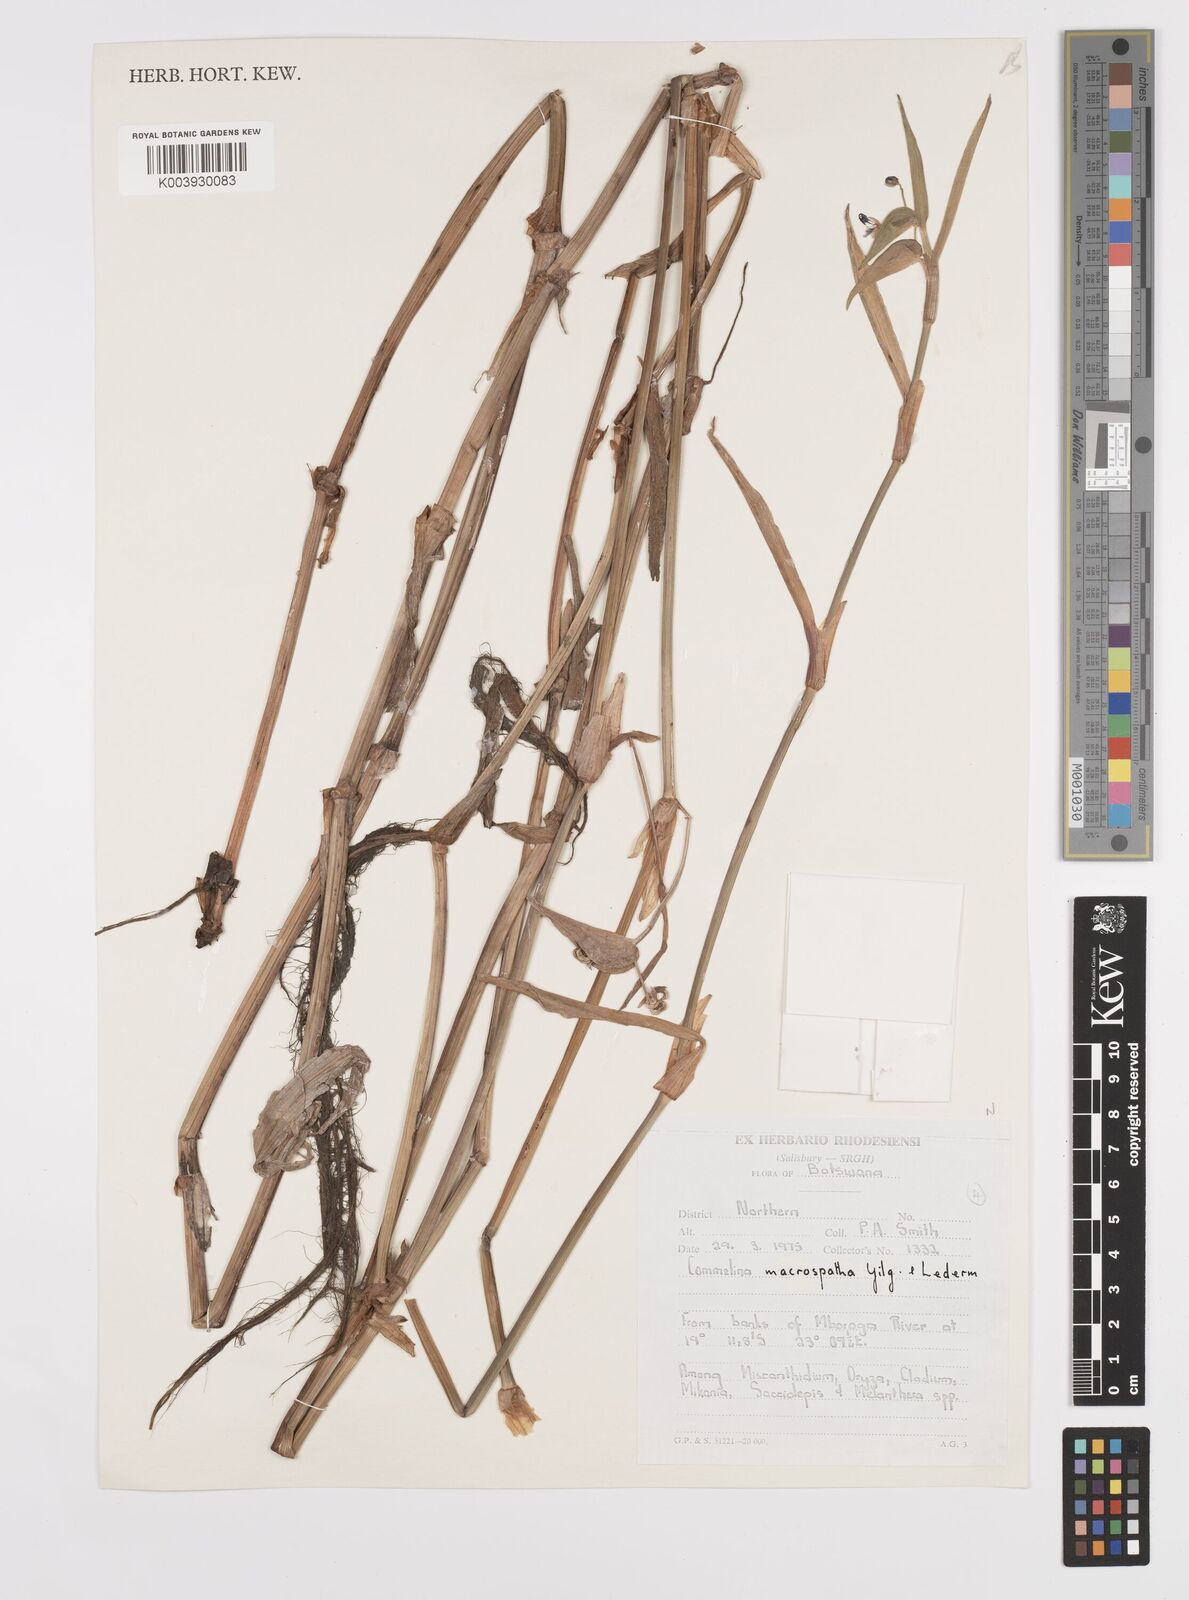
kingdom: Plantae
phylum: Tracheophyta
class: Liliopsida
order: Commelinales
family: Commelinaceae
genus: Commelina
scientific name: Commelina scandens
